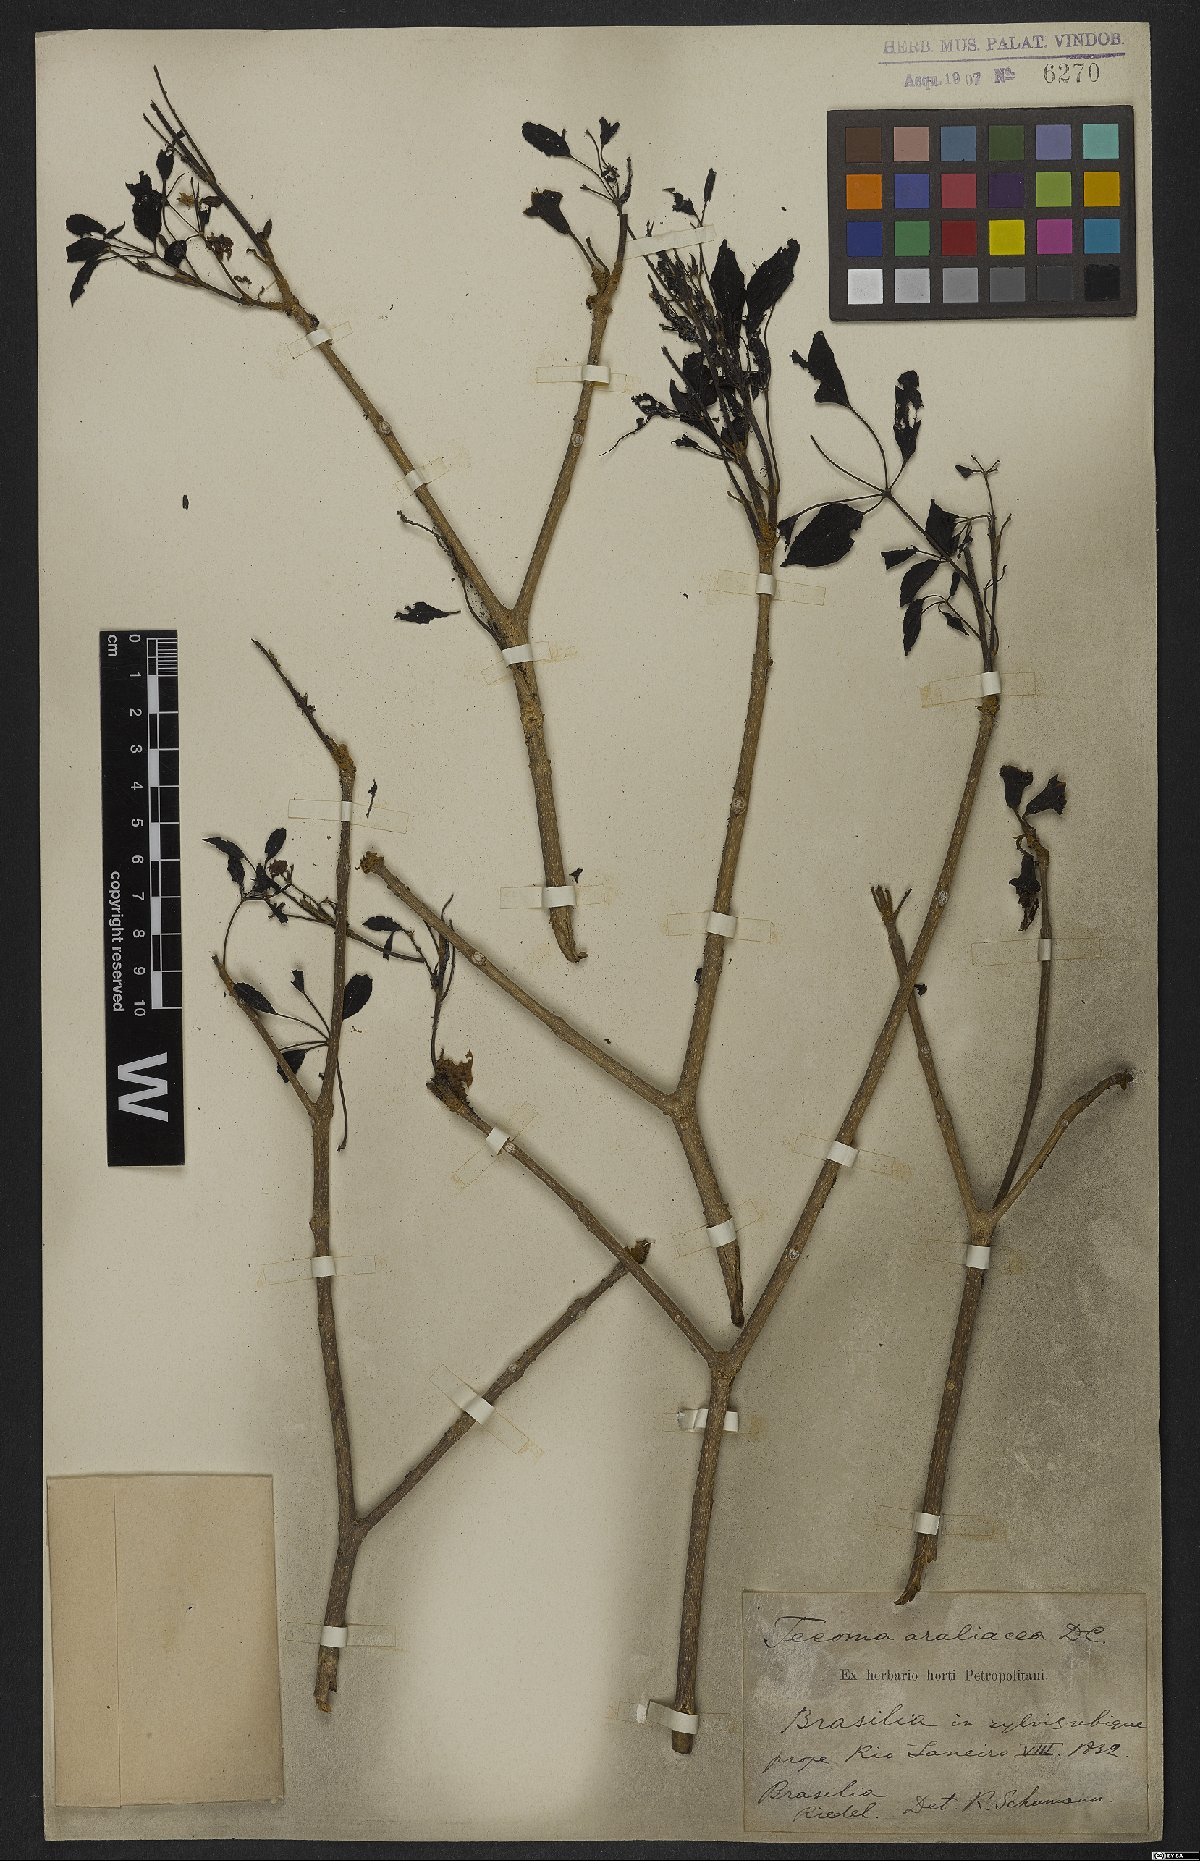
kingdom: Plantae
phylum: Tracheophyta
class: Magnoliopsida
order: Lamiales
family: Bignoniaceae
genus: Handroanthus
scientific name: Handroanthus serratifolius
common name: Yellow ipe
